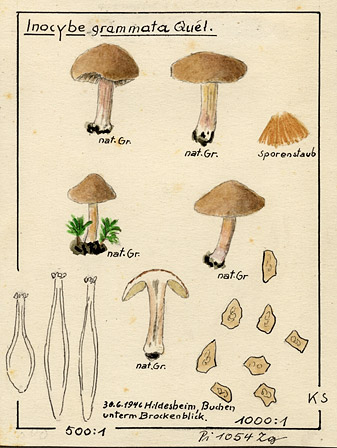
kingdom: Fungi
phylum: Basidiomycota
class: Agaricomycetes
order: Agaricales
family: Inocybaceae
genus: Inocybe
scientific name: Inocybe grammata
